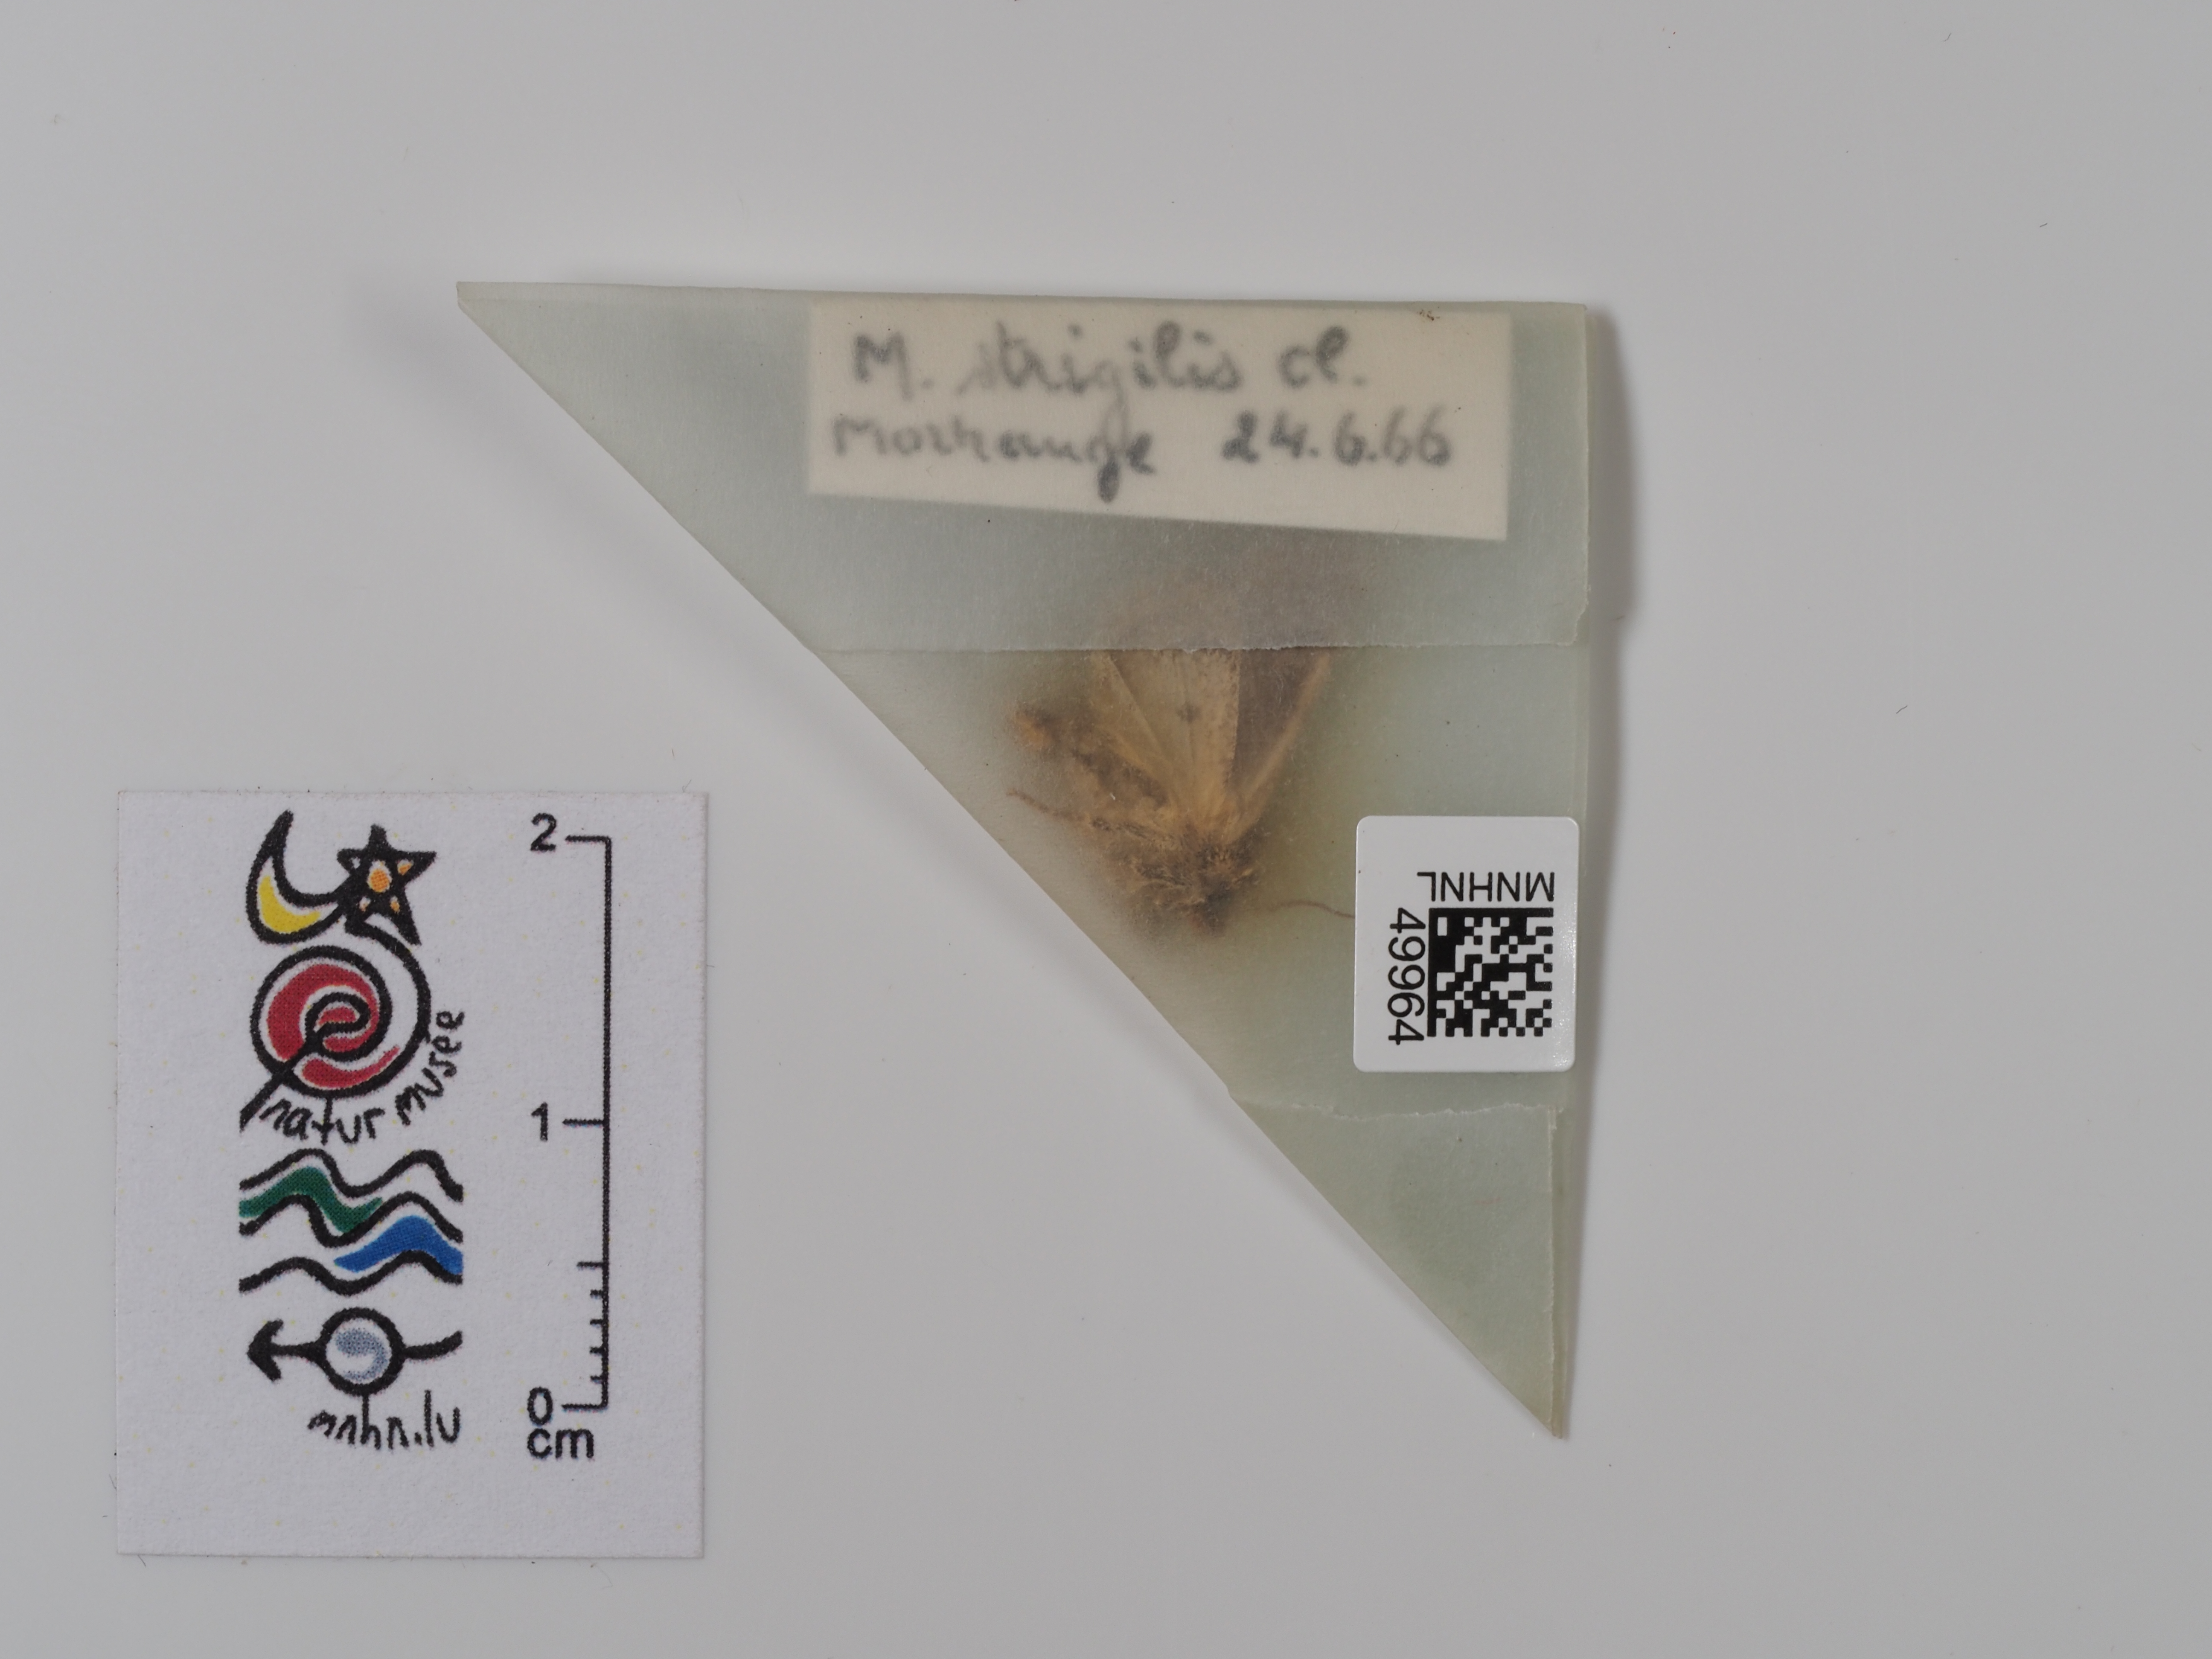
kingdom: Animalia
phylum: Arthropoda
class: Insecta
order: Lepidoptera
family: Noctuidae
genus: Oligia
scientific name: Oligia strigilis
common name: Marbled minor
